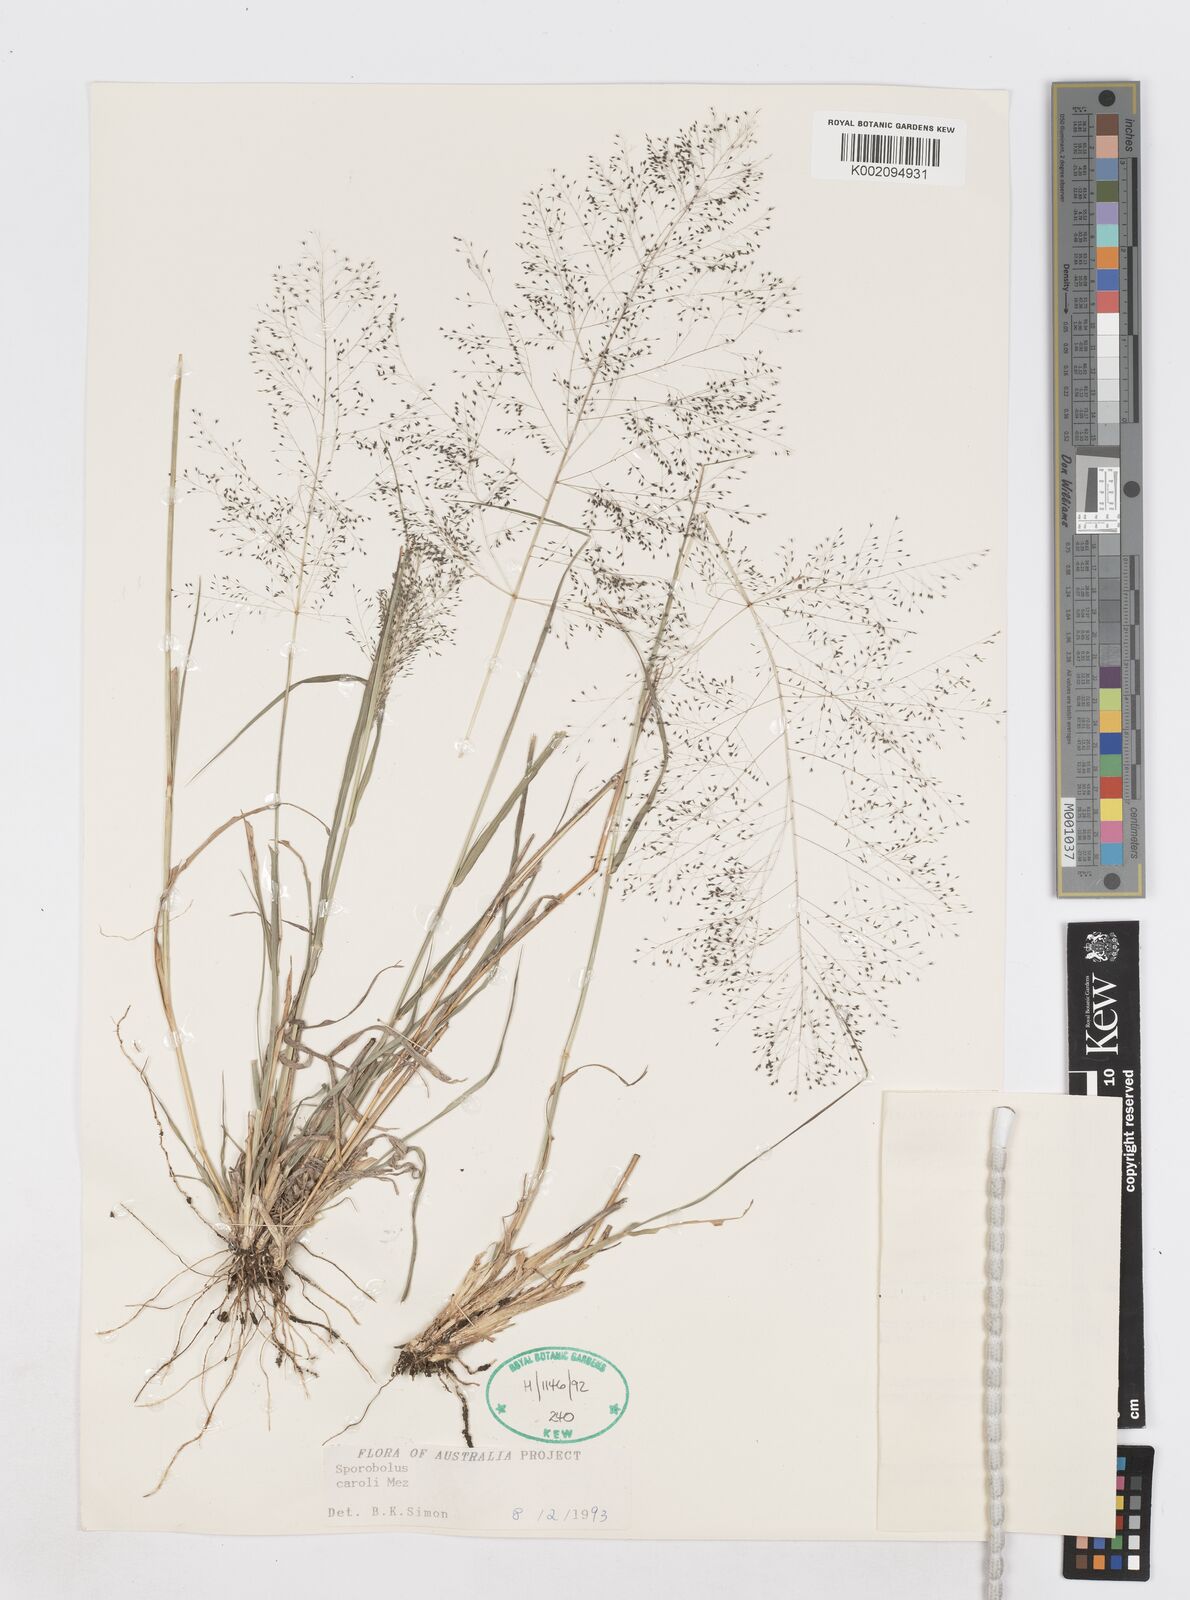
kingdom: Plantae
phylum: Tracheophyta
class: Liliopsida
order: Poales
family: Poaceae
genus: Sporobolus
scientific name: Sporobolus caroli
